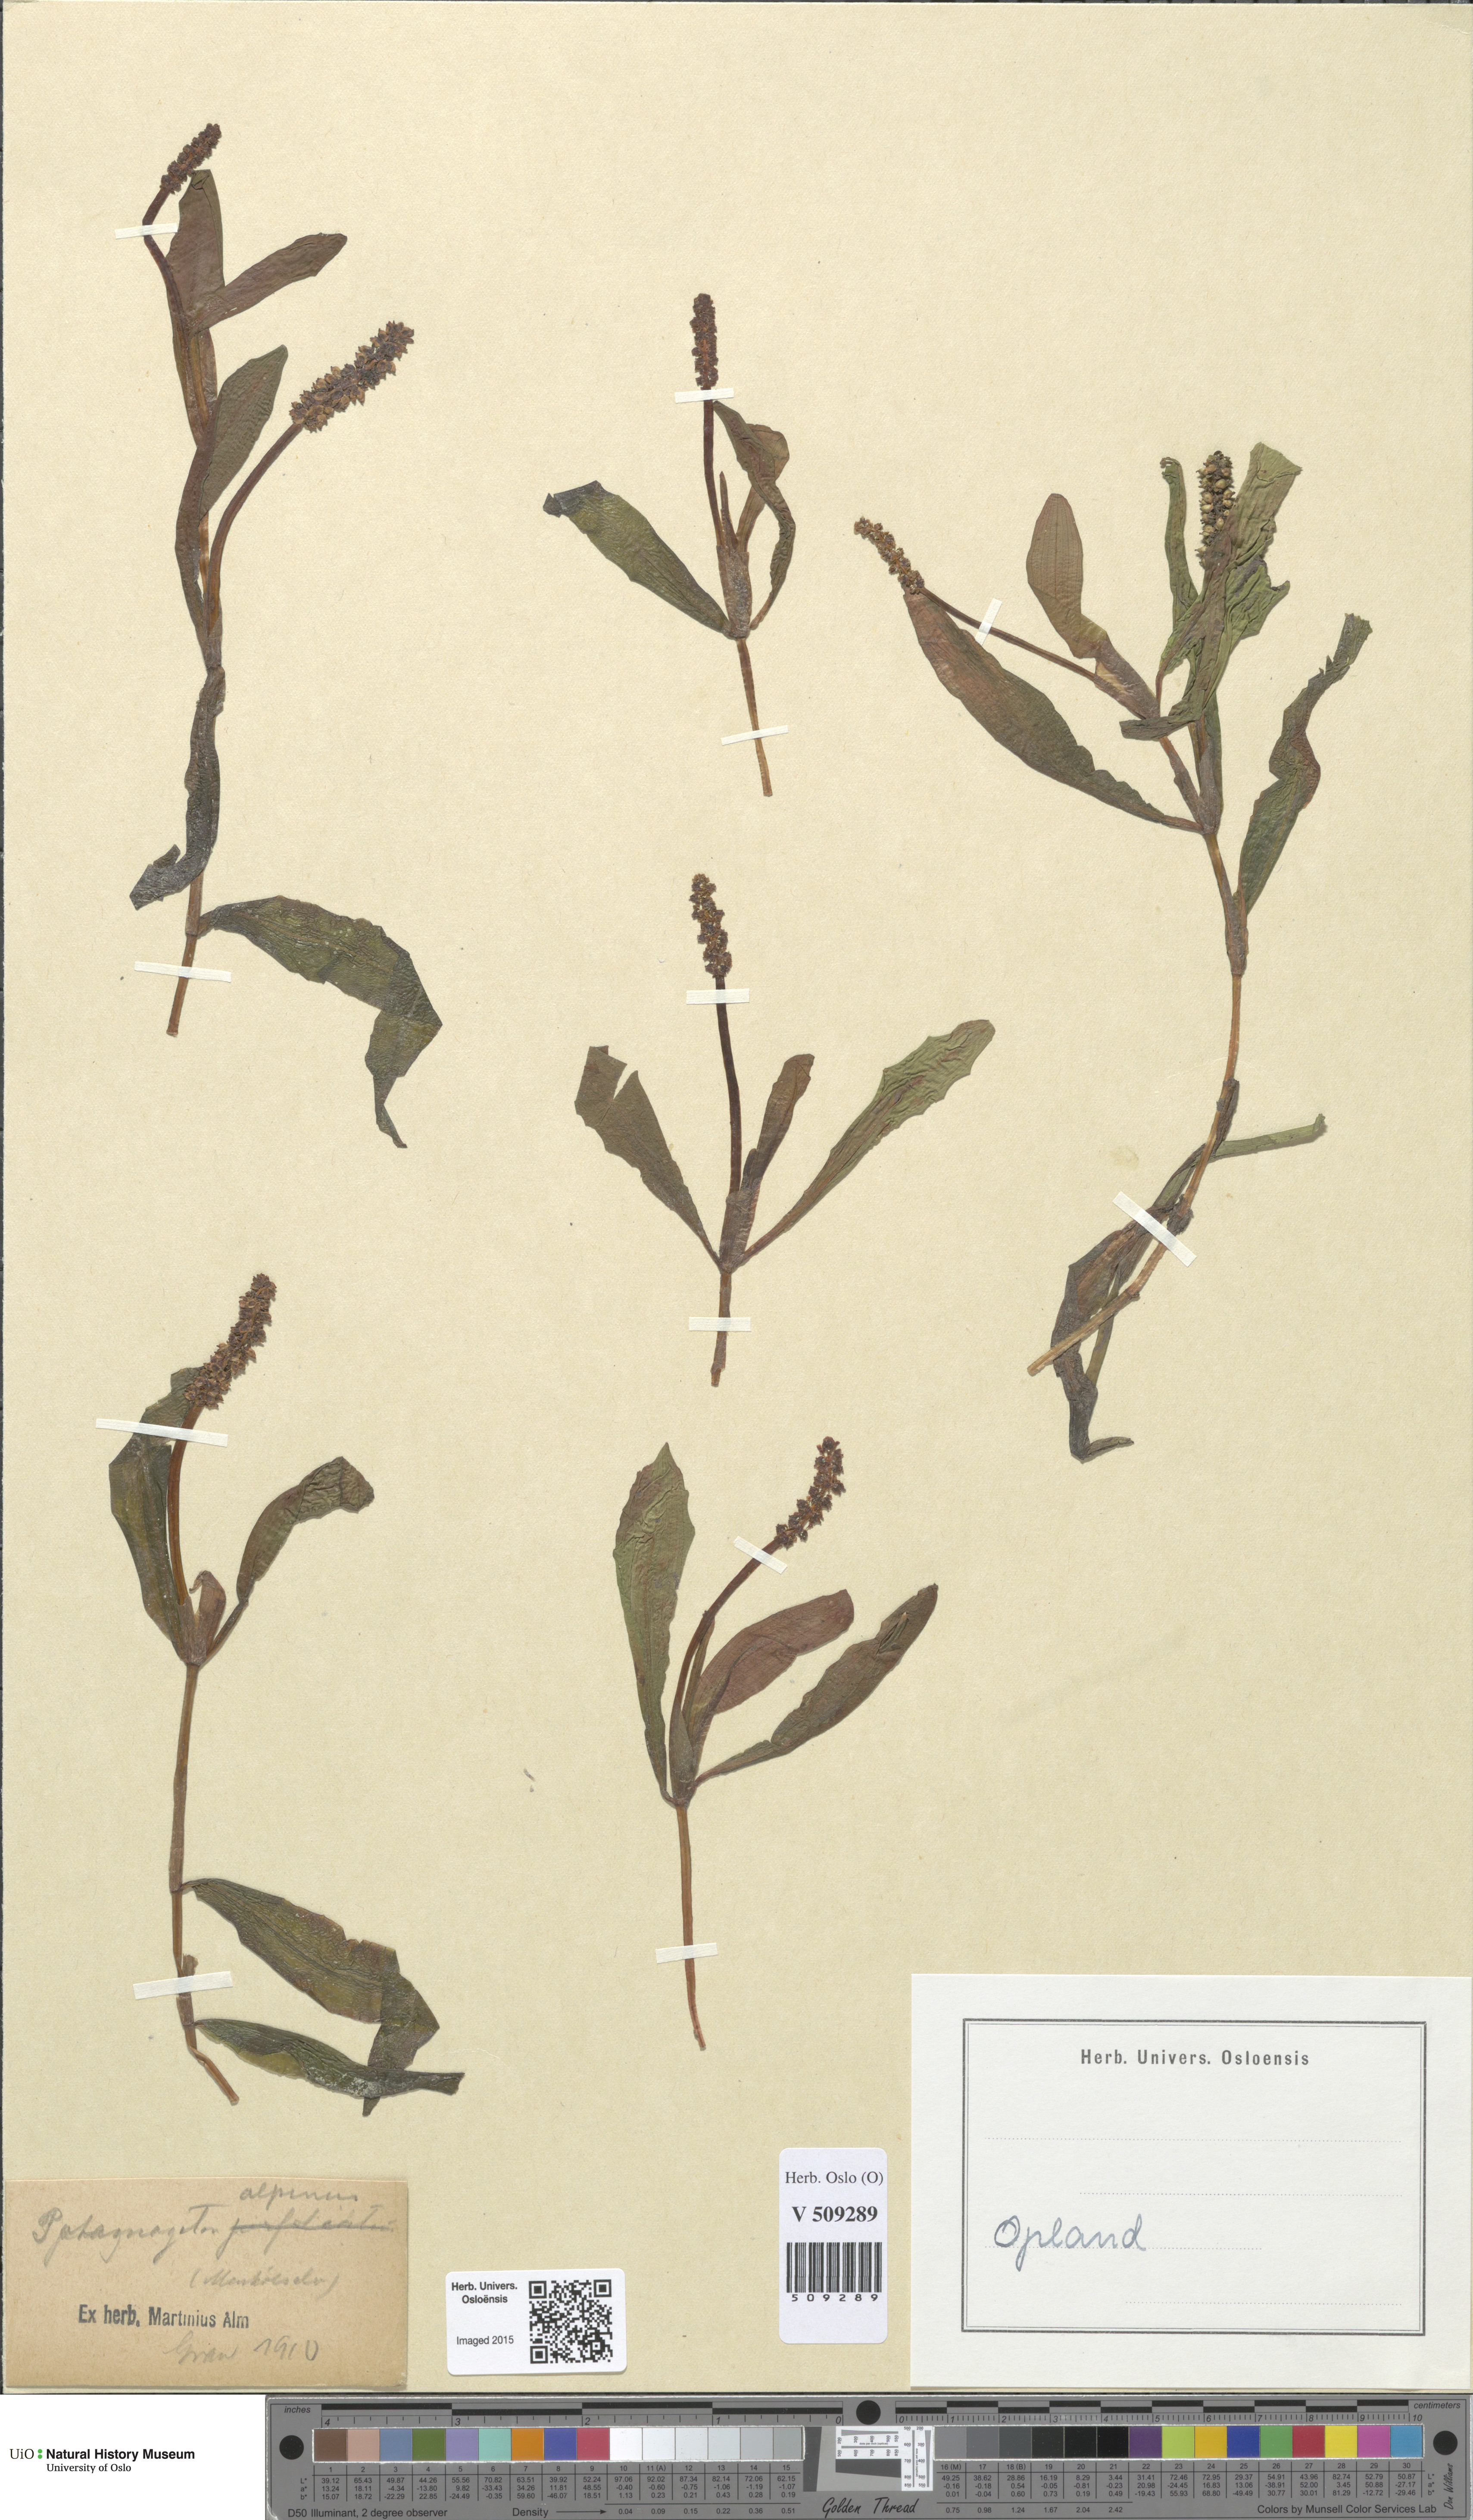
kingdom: Plantae
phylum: Tracheophyta
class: Liliopsida
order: Alismatales
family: Potamogetonaceae
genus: Potamogeton
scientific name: Potamogeton alpinus
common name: Red pondweed
